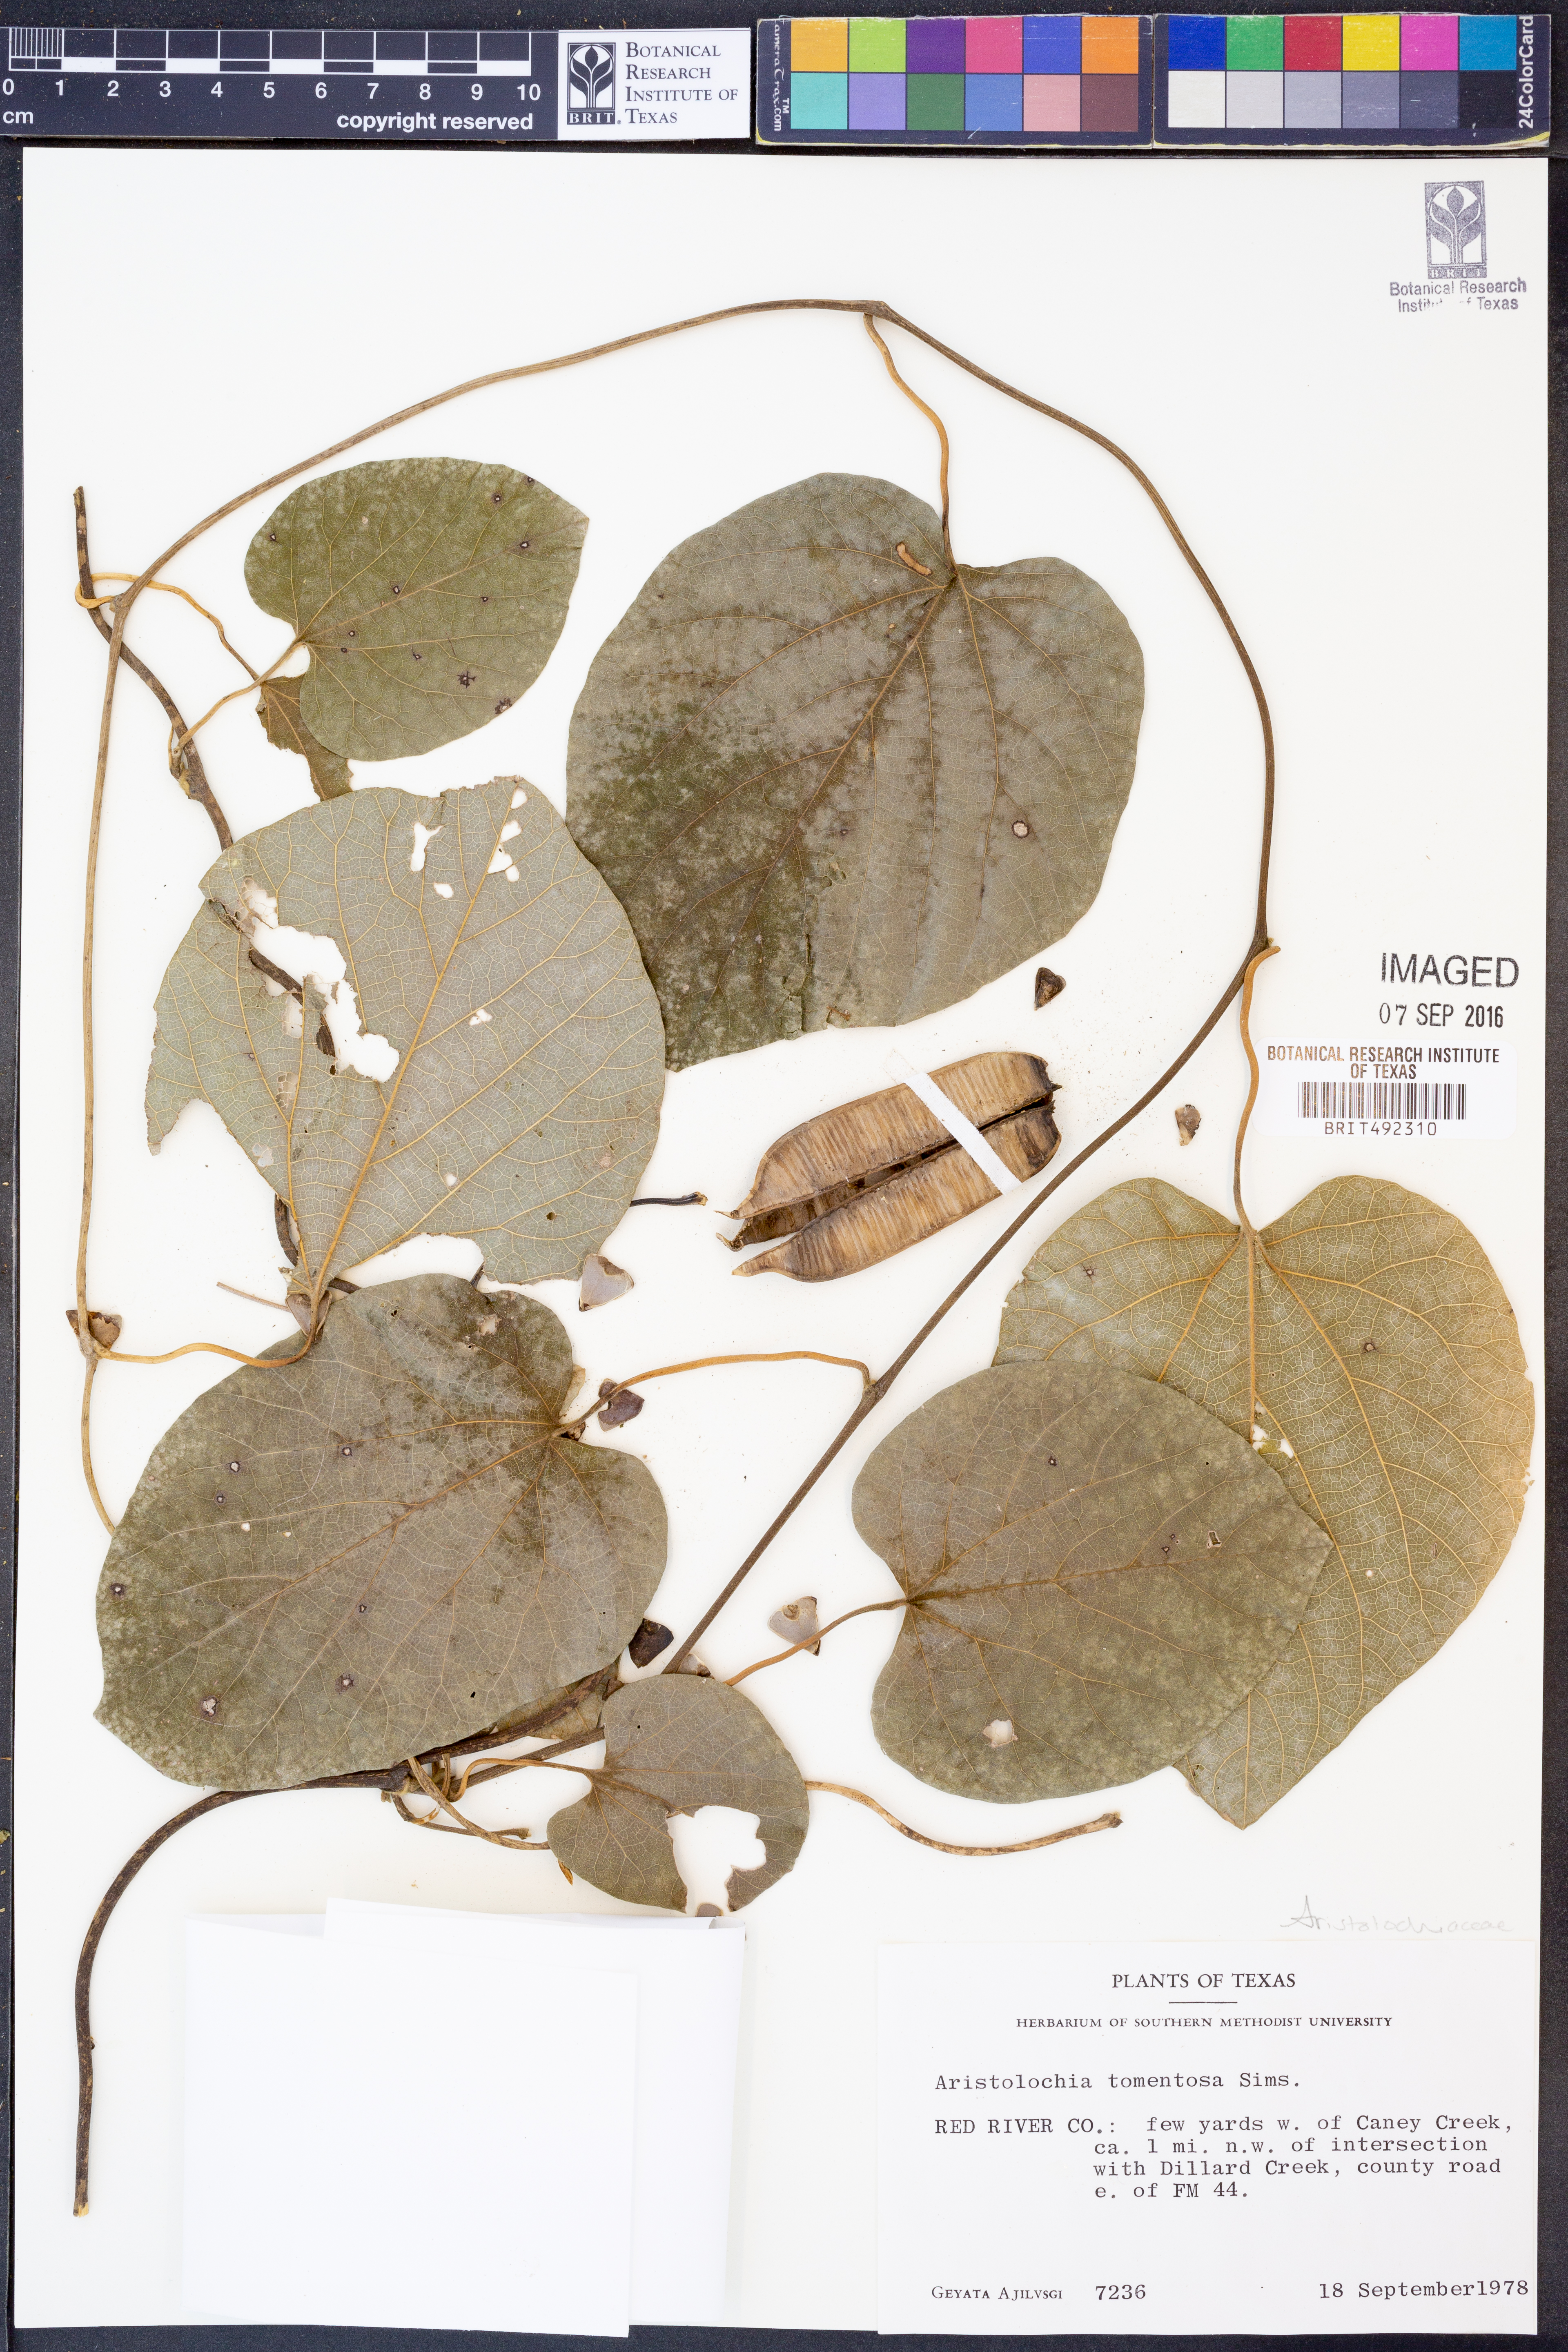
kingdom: Plantae
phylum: Tracheophyta
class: Magnoliopsida
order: Piperales
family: Aristolochiaceae
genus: Isotrema
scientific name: Isotrema tomentosum
